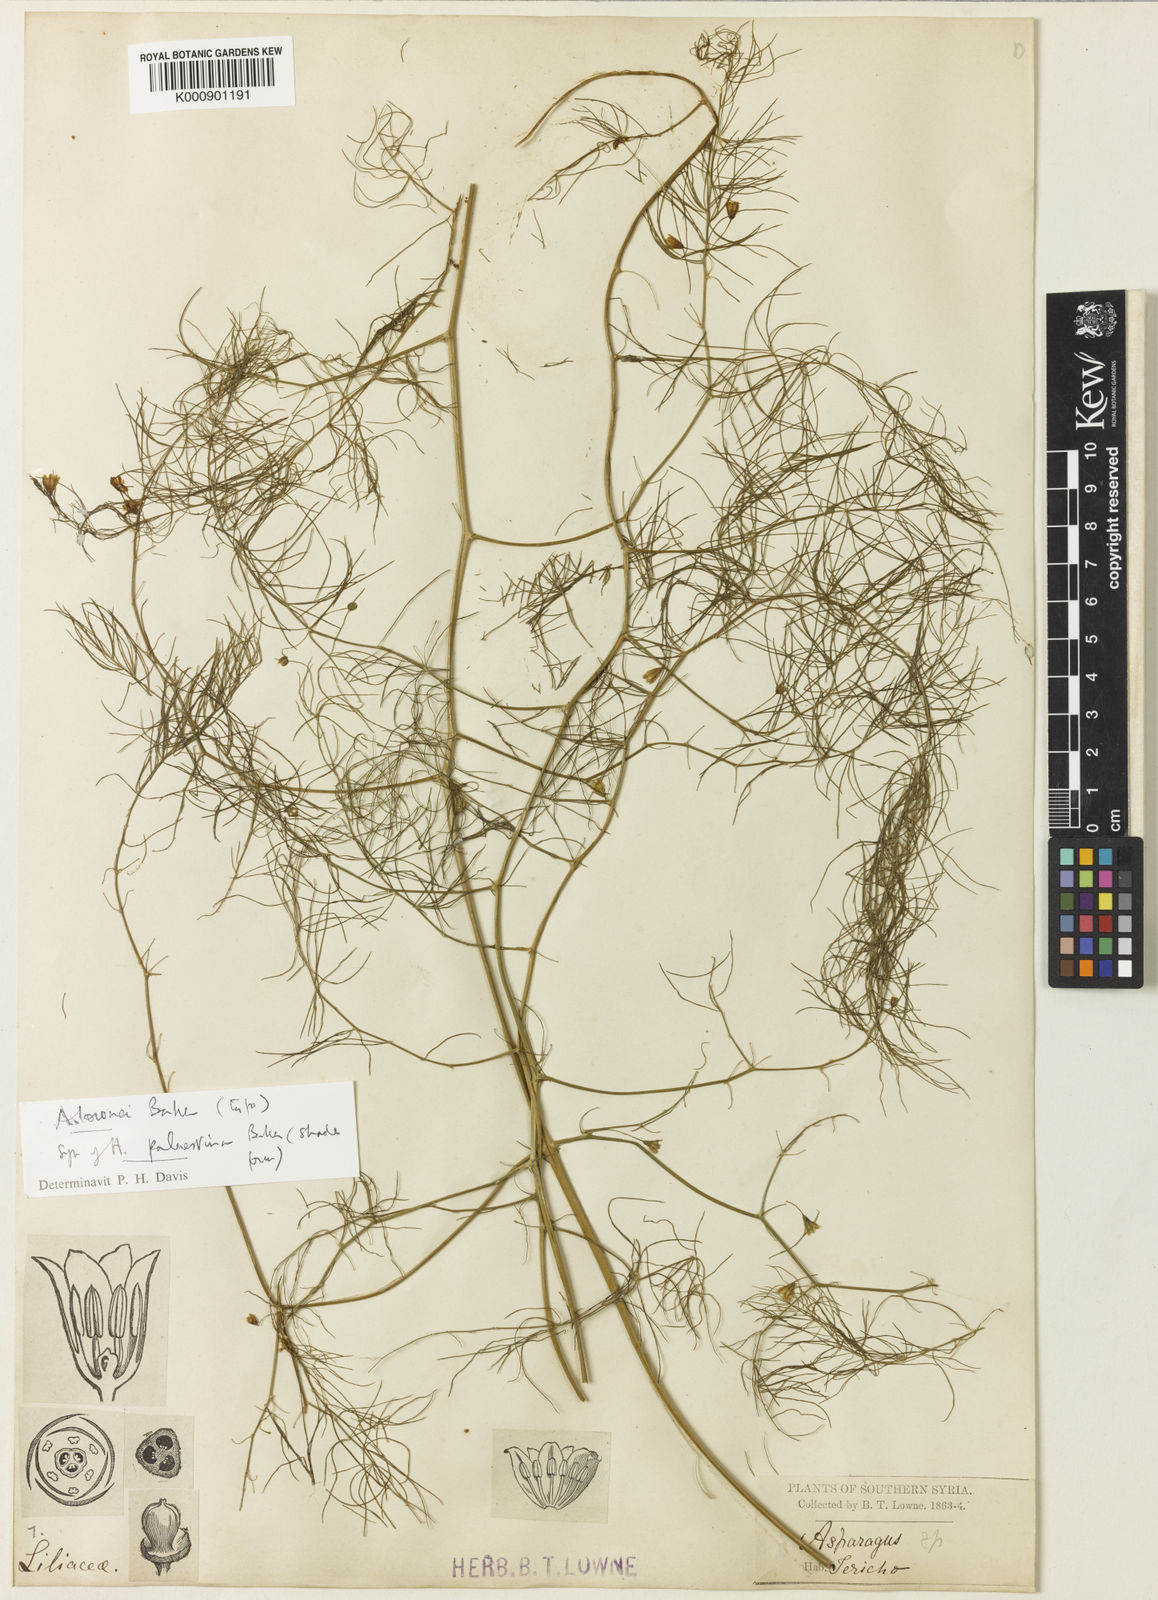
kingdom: Plantae
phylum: Tracheophyta
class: Liliopsida
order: Asparagales
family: Asparagaceae
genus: Asparagus
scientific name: Asparagus palaestinus
